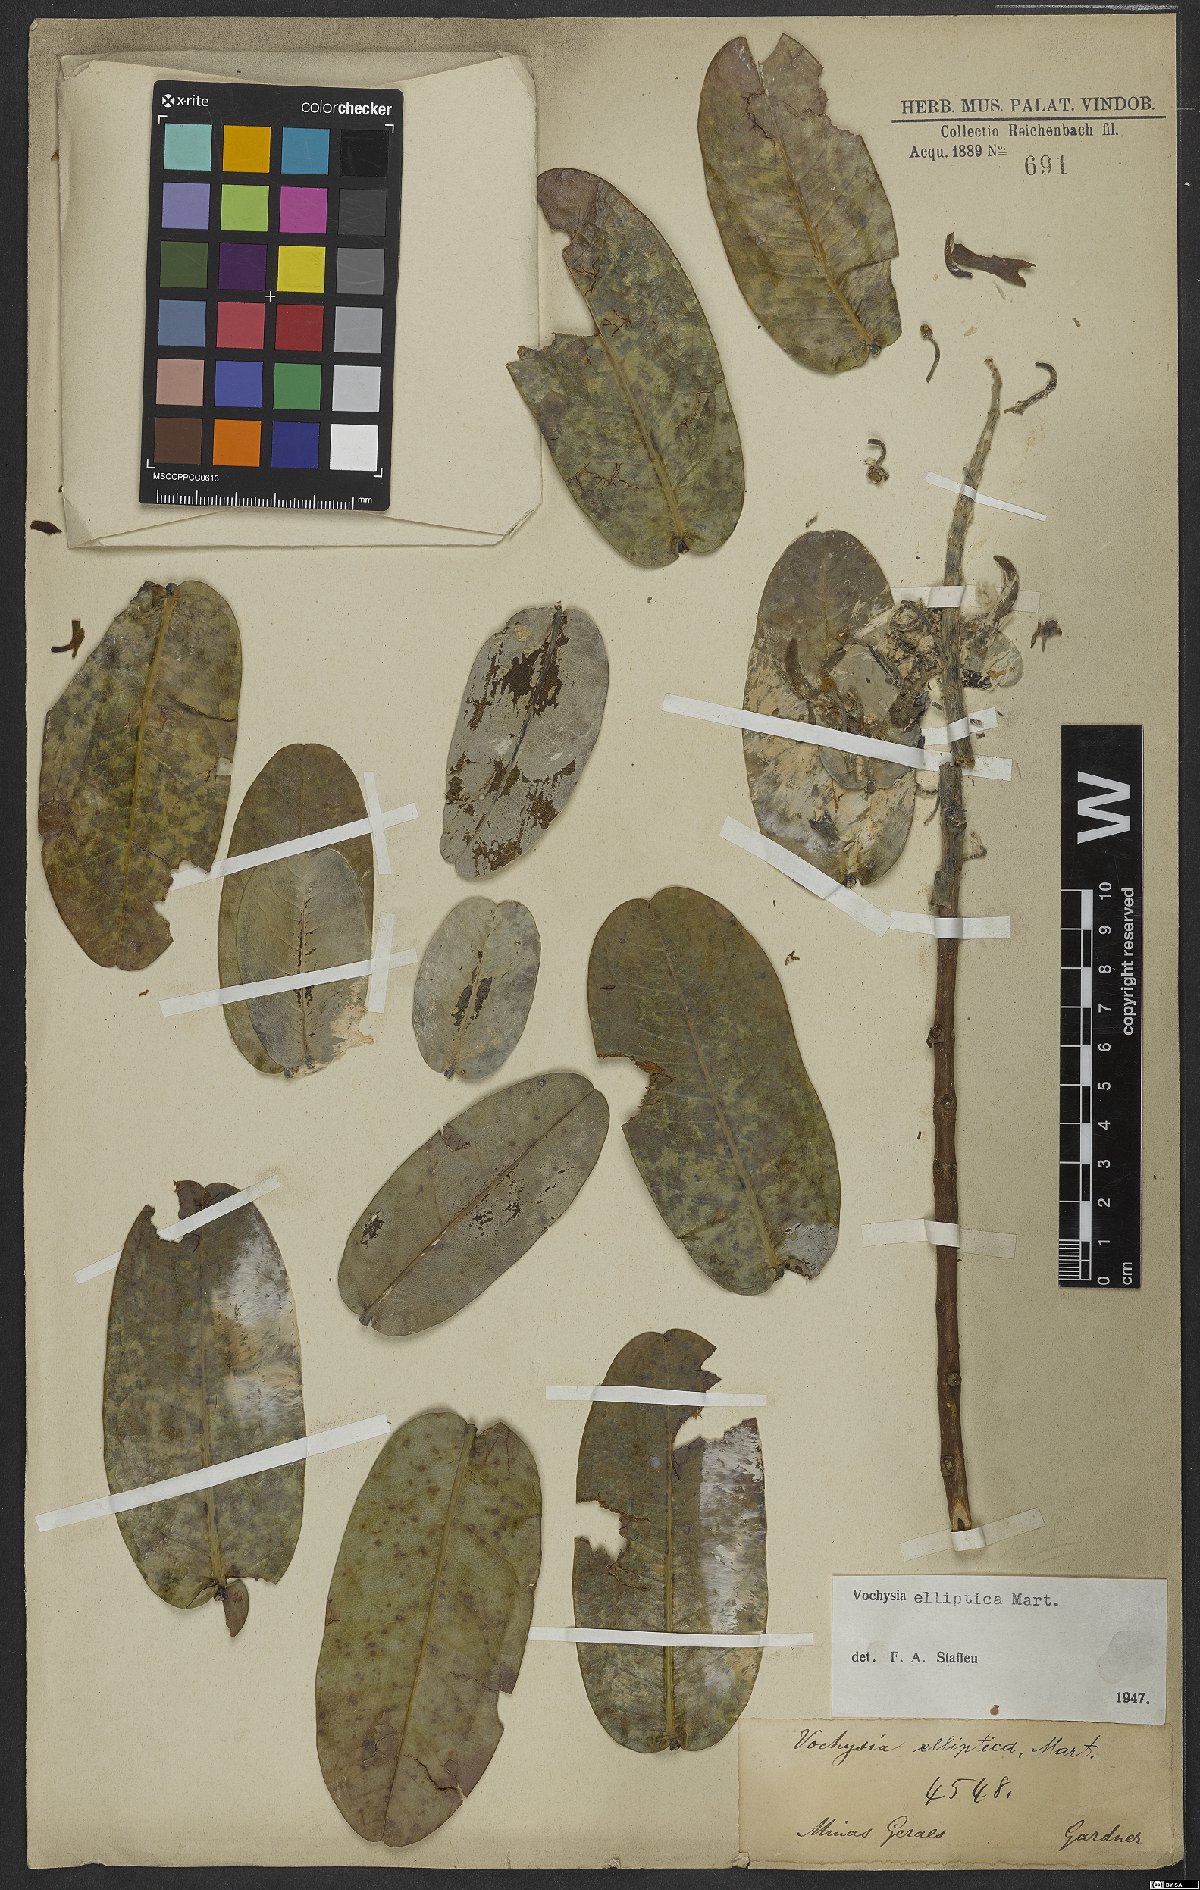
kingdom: Plantae
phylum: Tracheophyta
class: Magnoliopsida
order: Myrtales
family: Vochysiaceae
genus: Vochysia
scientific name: Vochysia elliptica
